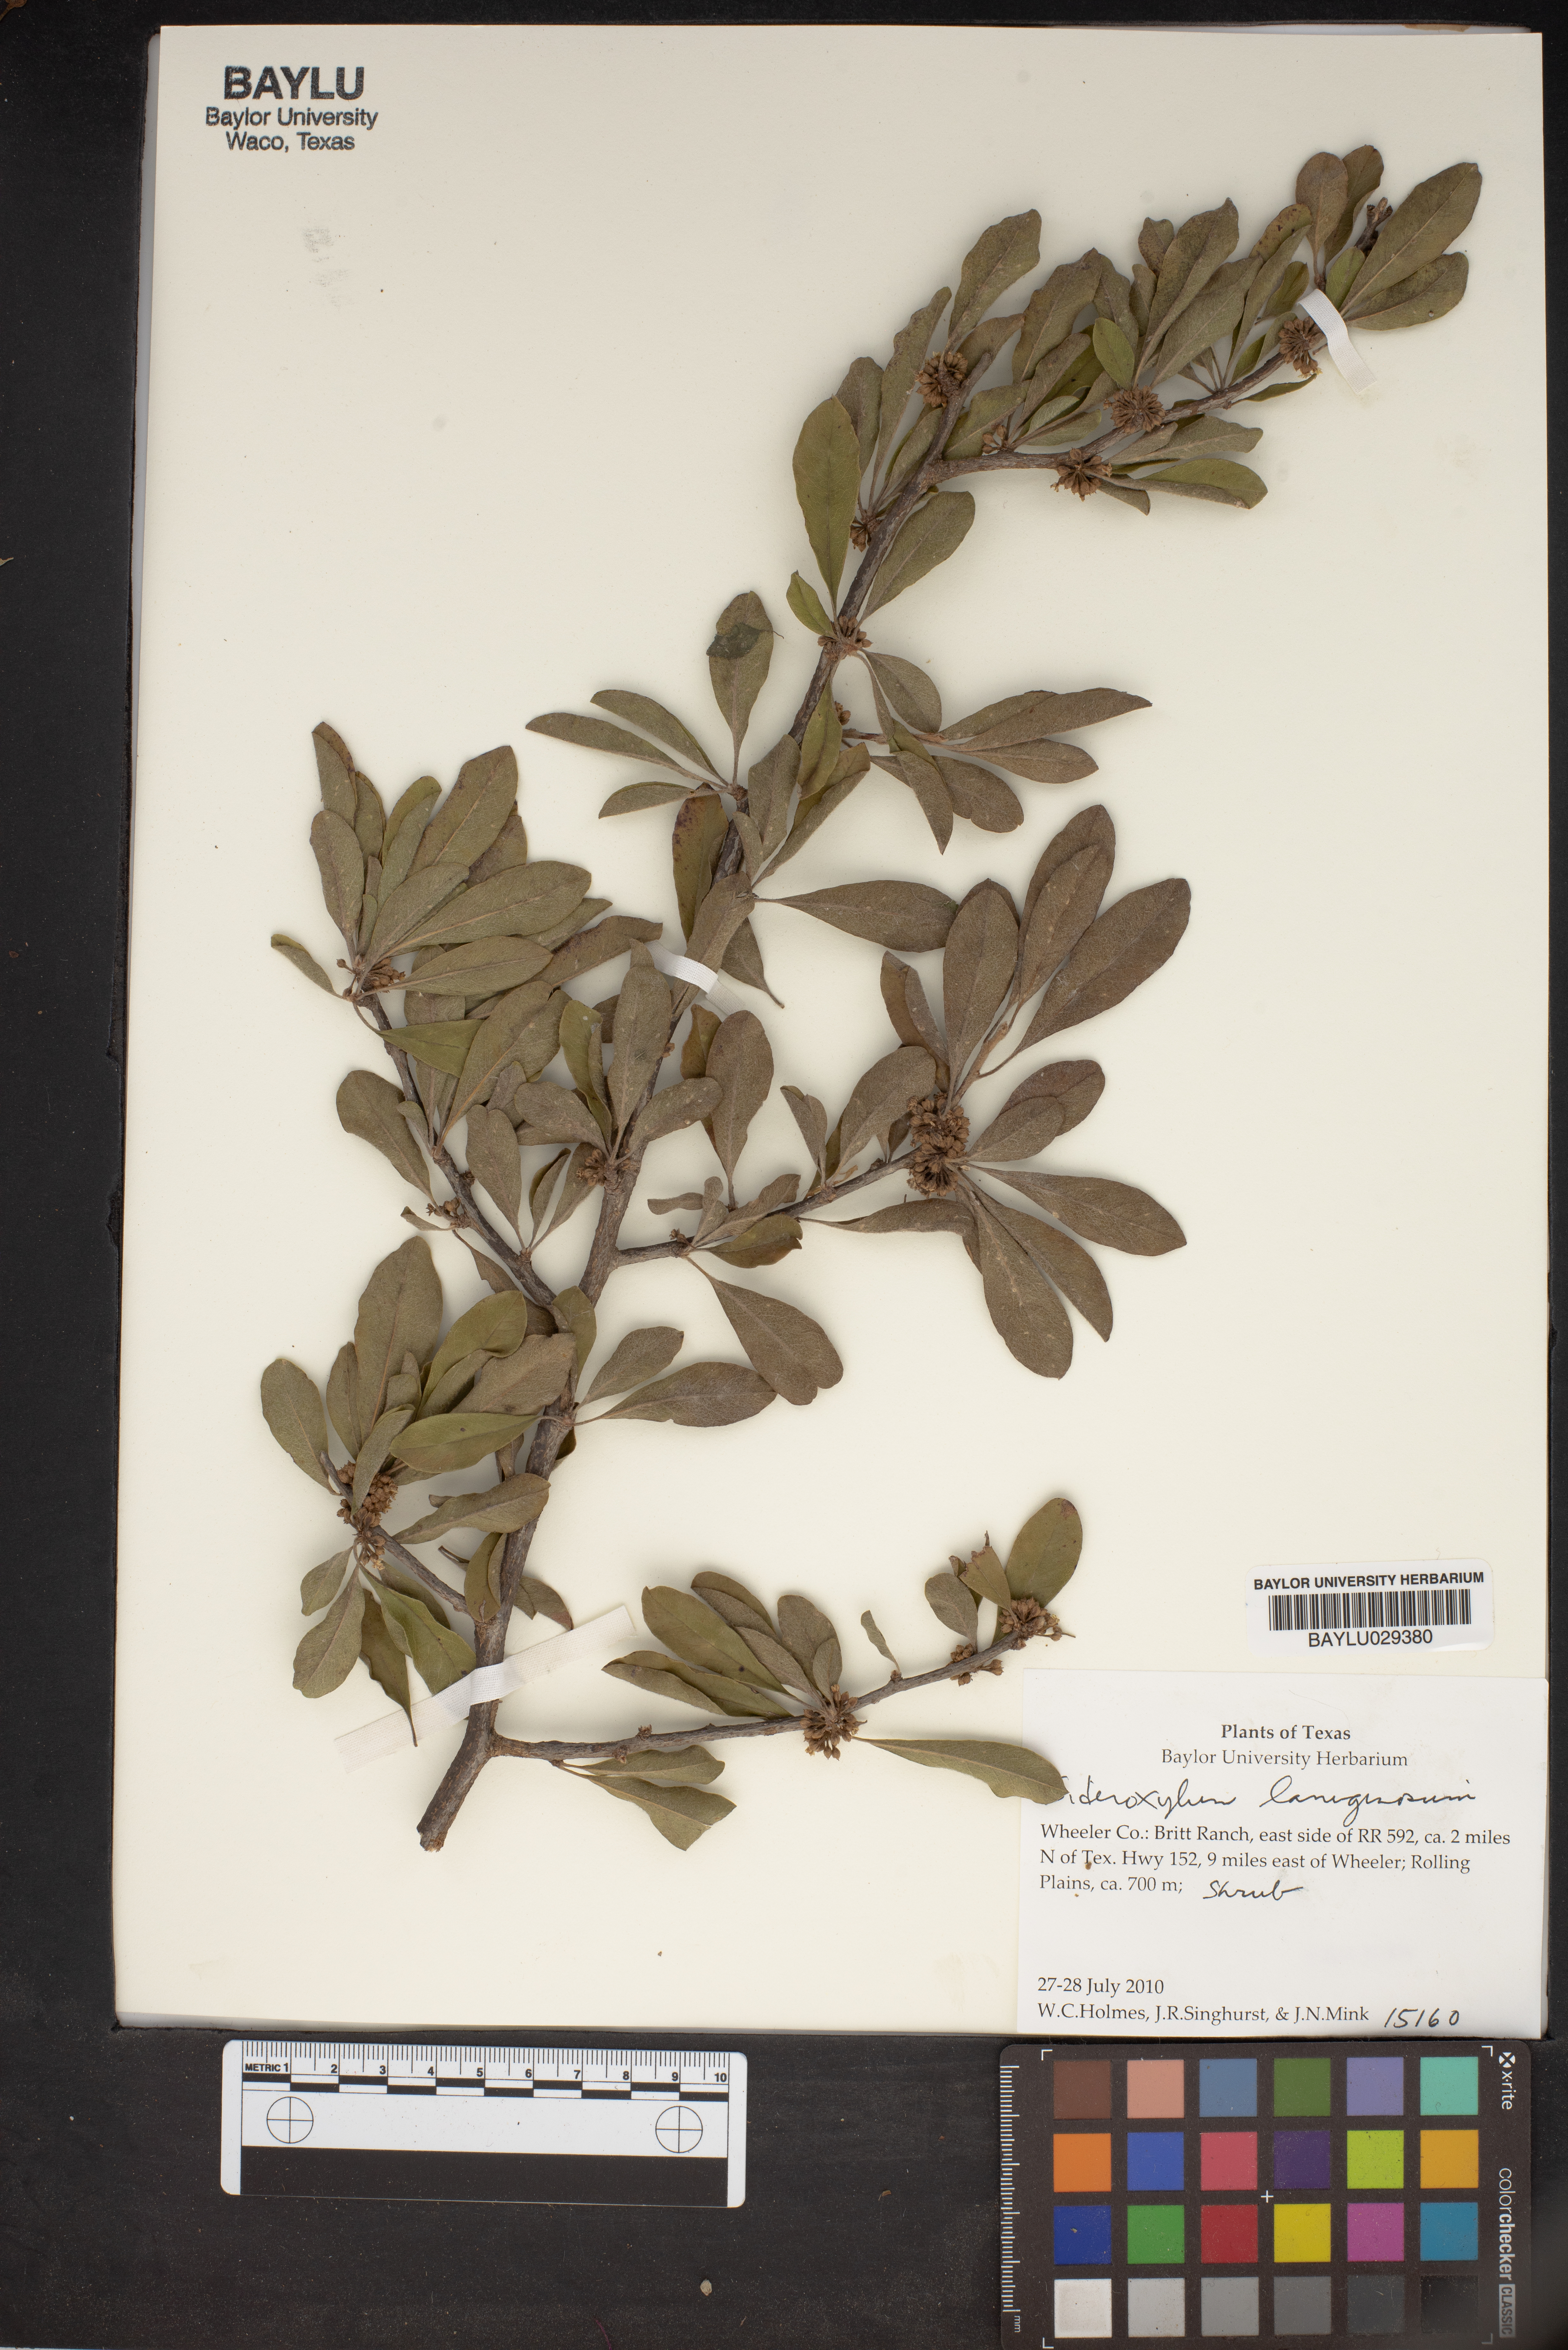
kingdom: Plantae
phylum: Tracheophyta
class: Magnoliopsida
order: Ericales
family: Sapotaceae
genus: Sideroxylum
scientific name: Sideroxylum
